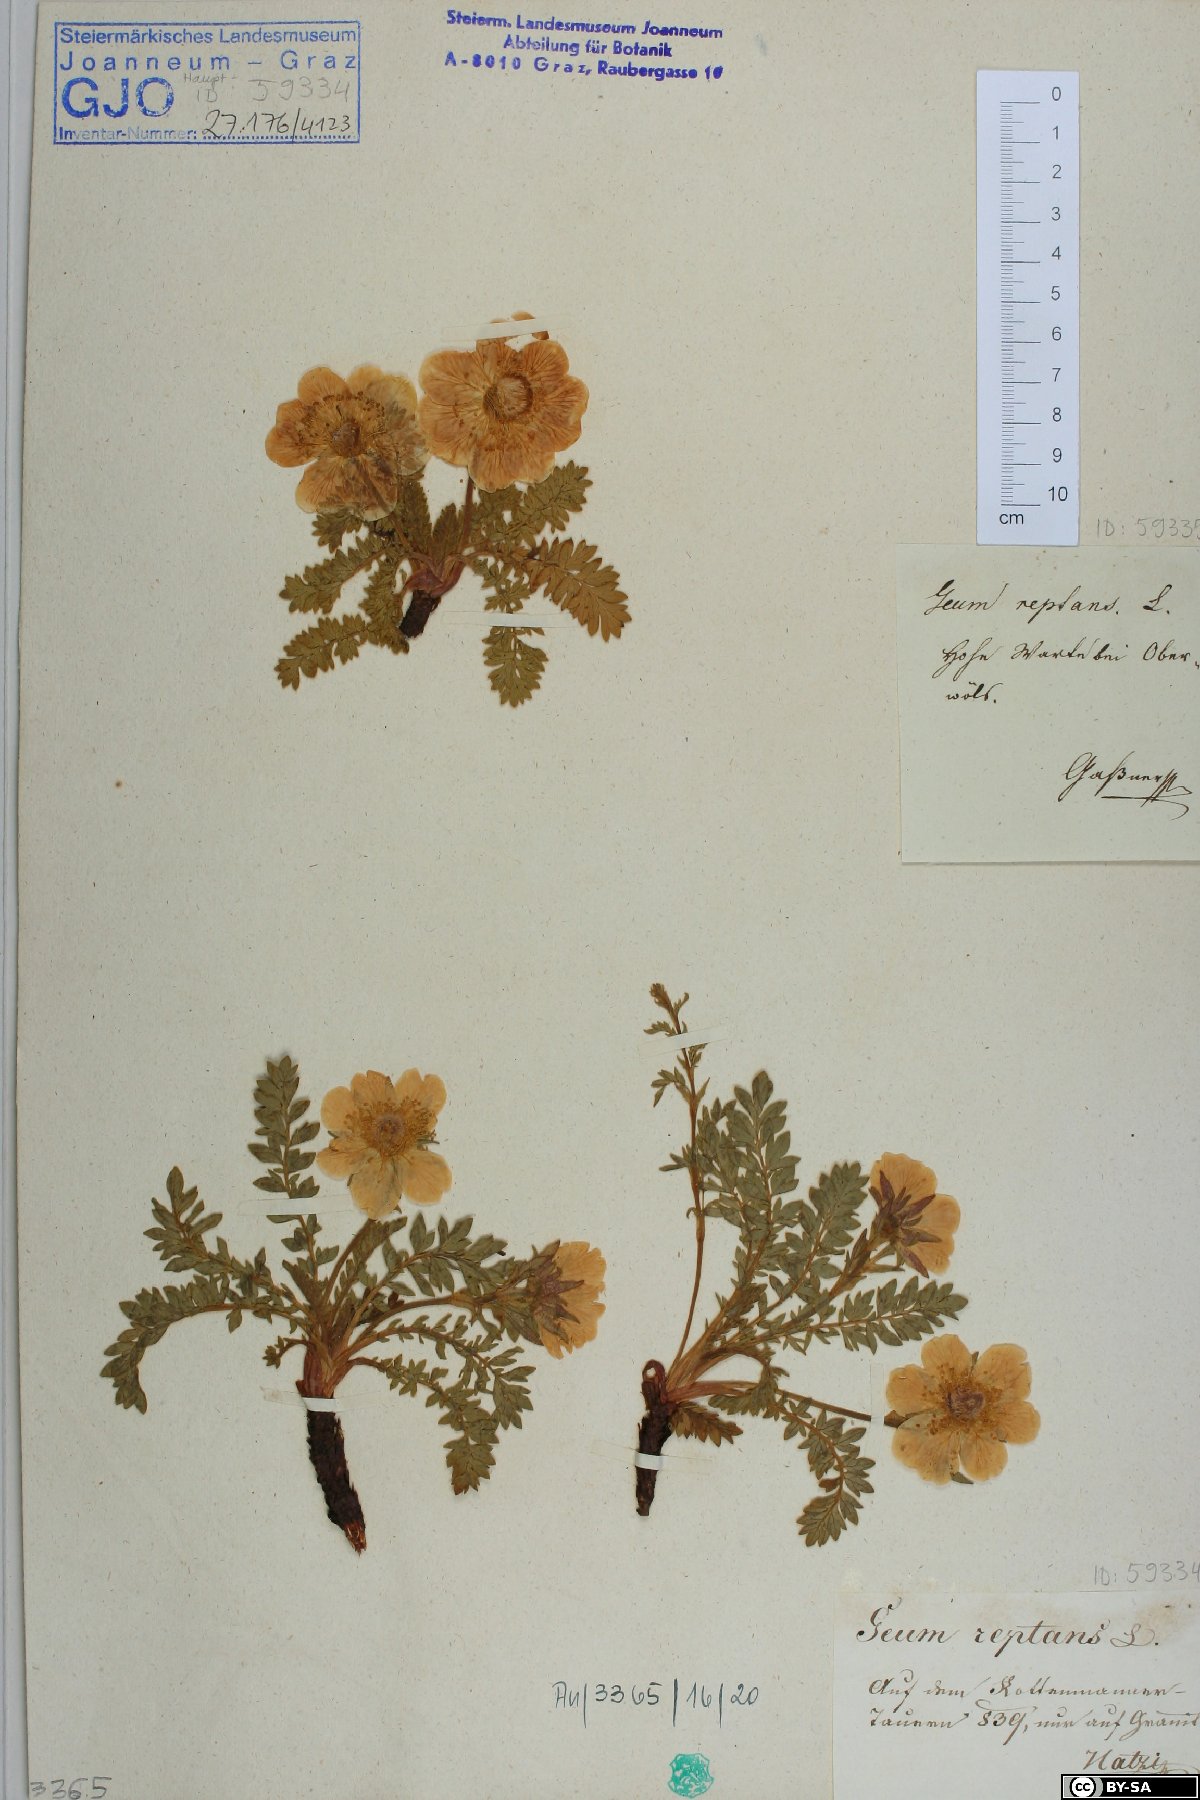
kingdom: Plantae
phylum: Tracheophyta
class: Magnoliopsida
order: Rosales
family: Rosaceae
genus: Geum
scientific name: Geum reptans
